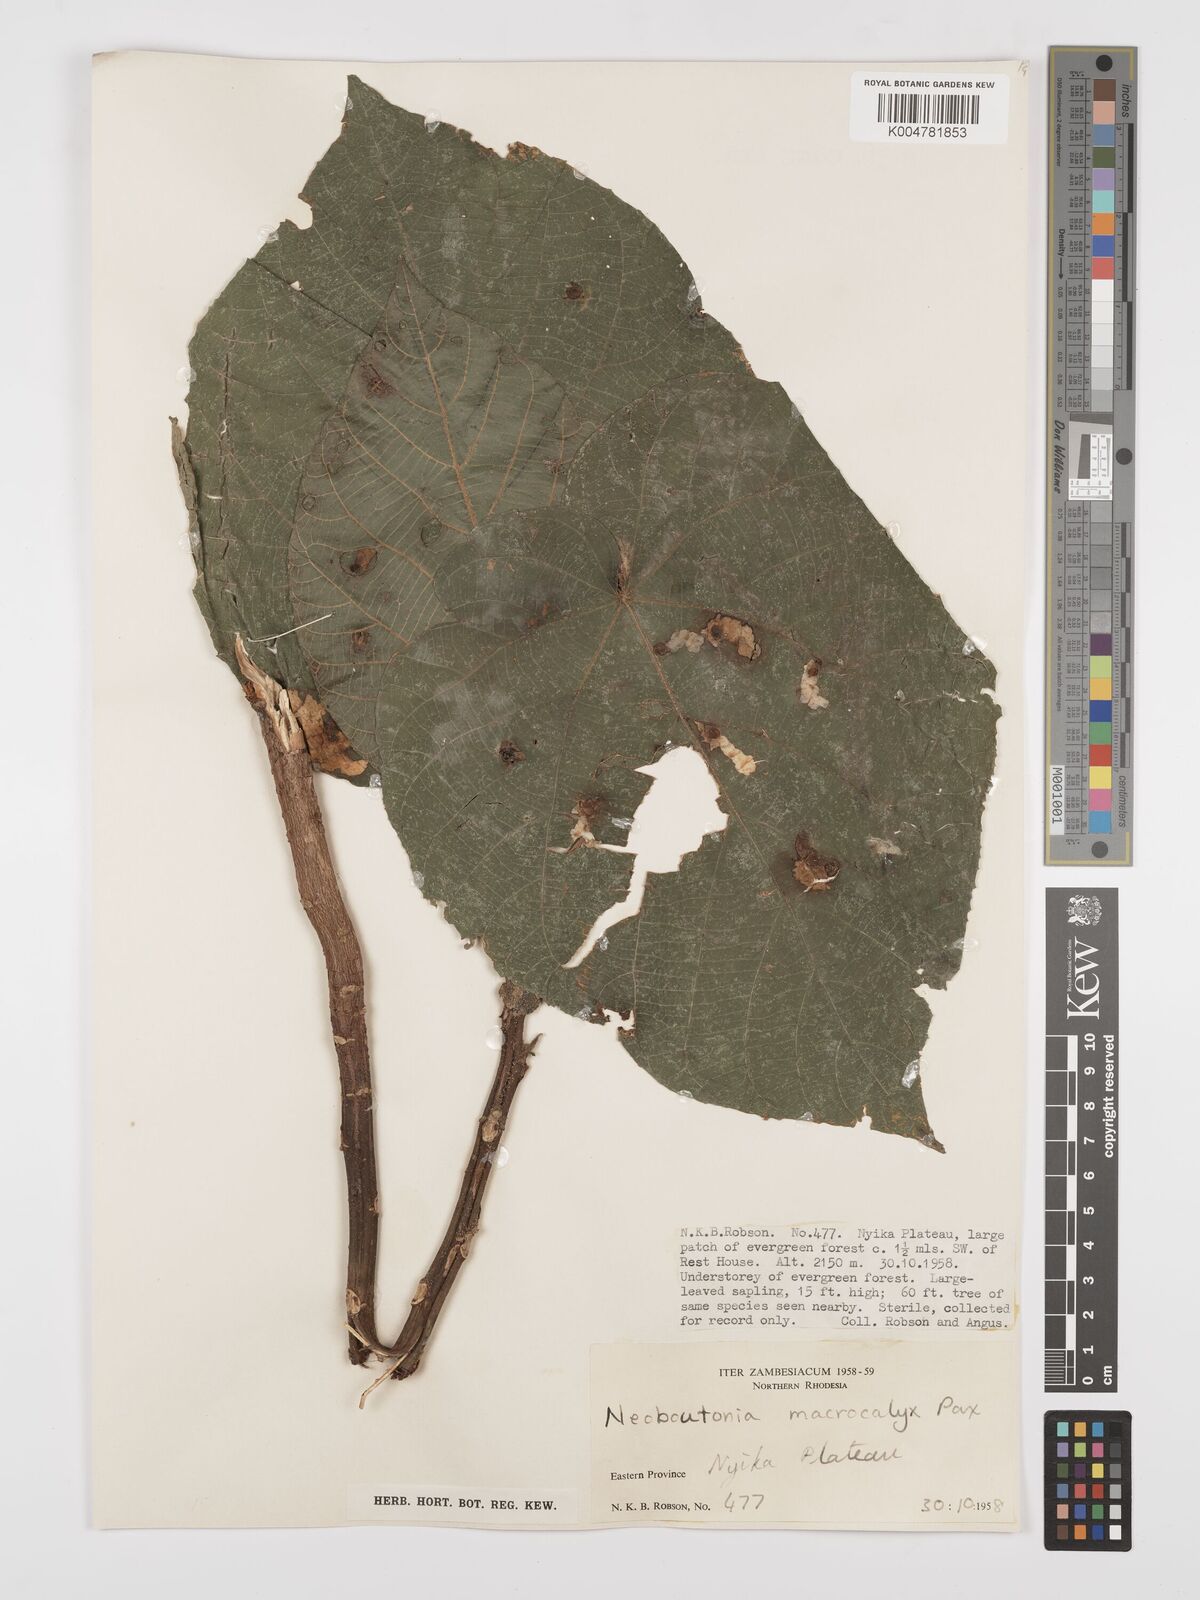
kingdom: Plantae
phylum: Tracheophyta
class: Magnoliopsida
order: Malpighiales
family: Euphorbiaceae
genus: Neoboutonia
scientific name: Neoboutonia macrocalyx
